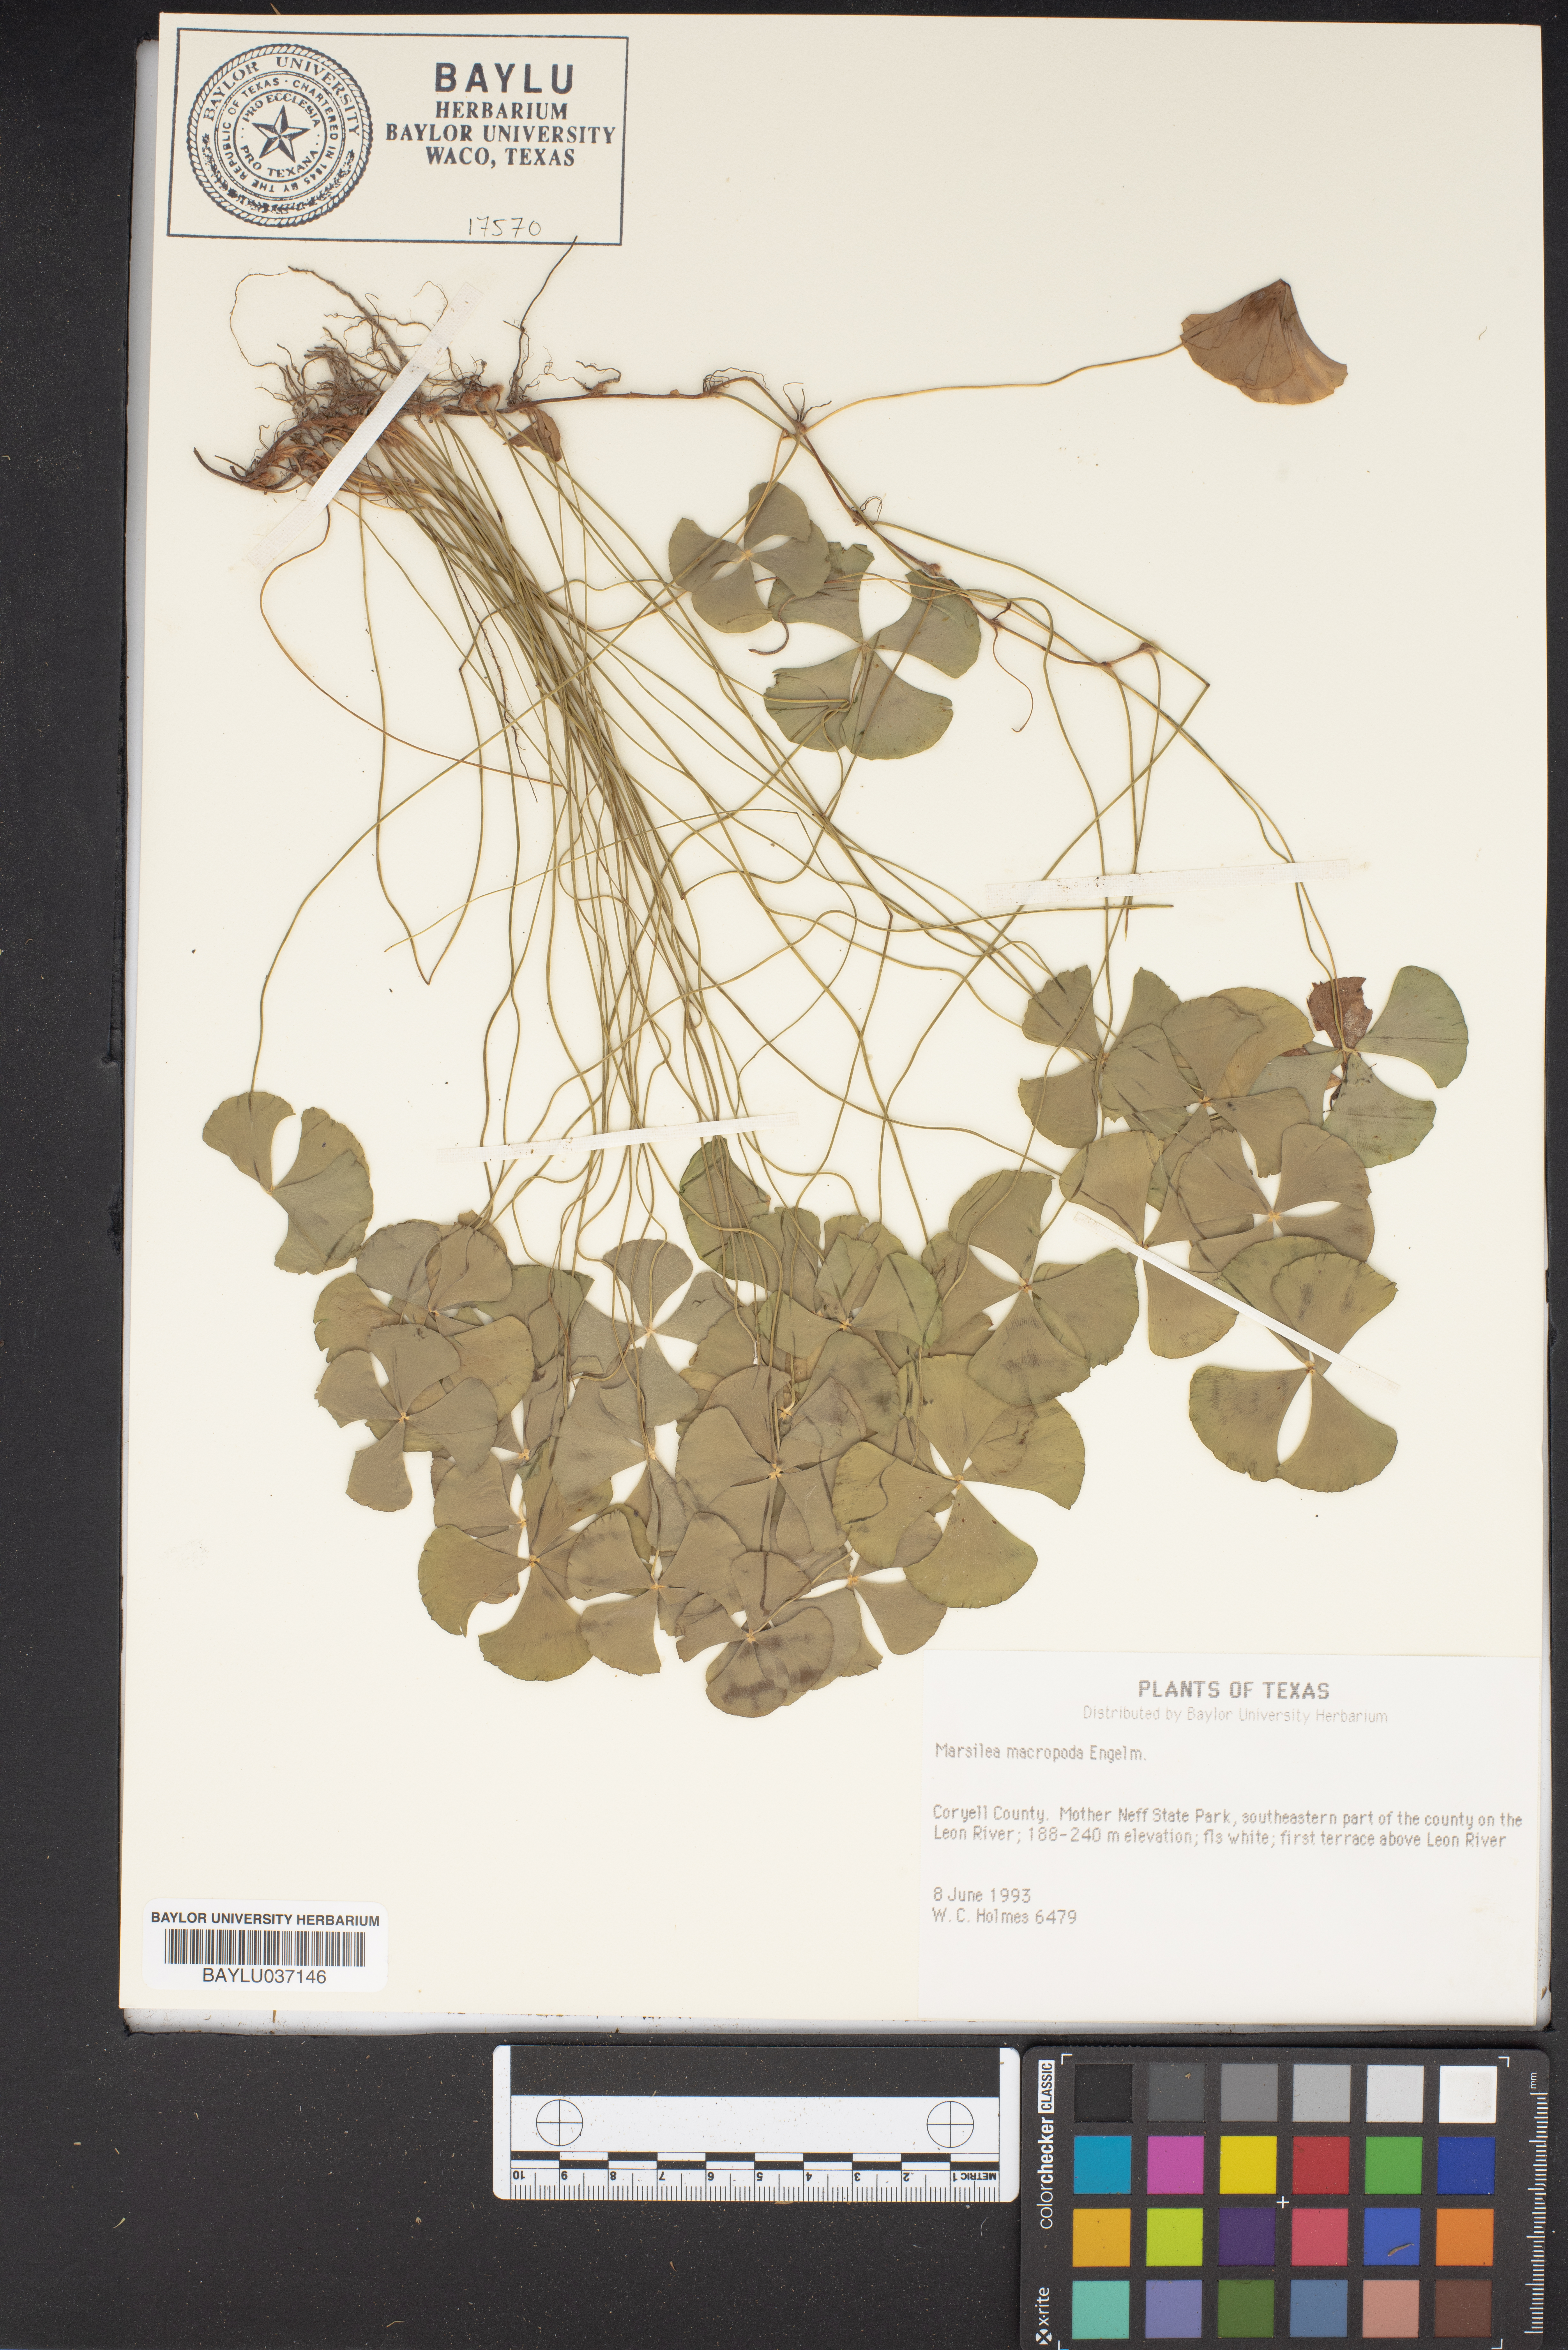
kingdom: Plantae
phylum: Tracheophyta
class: Polypodiopsida
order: Salviniales
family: Marsileaceae
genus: Marsilea
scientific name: Marsilea macropoda
